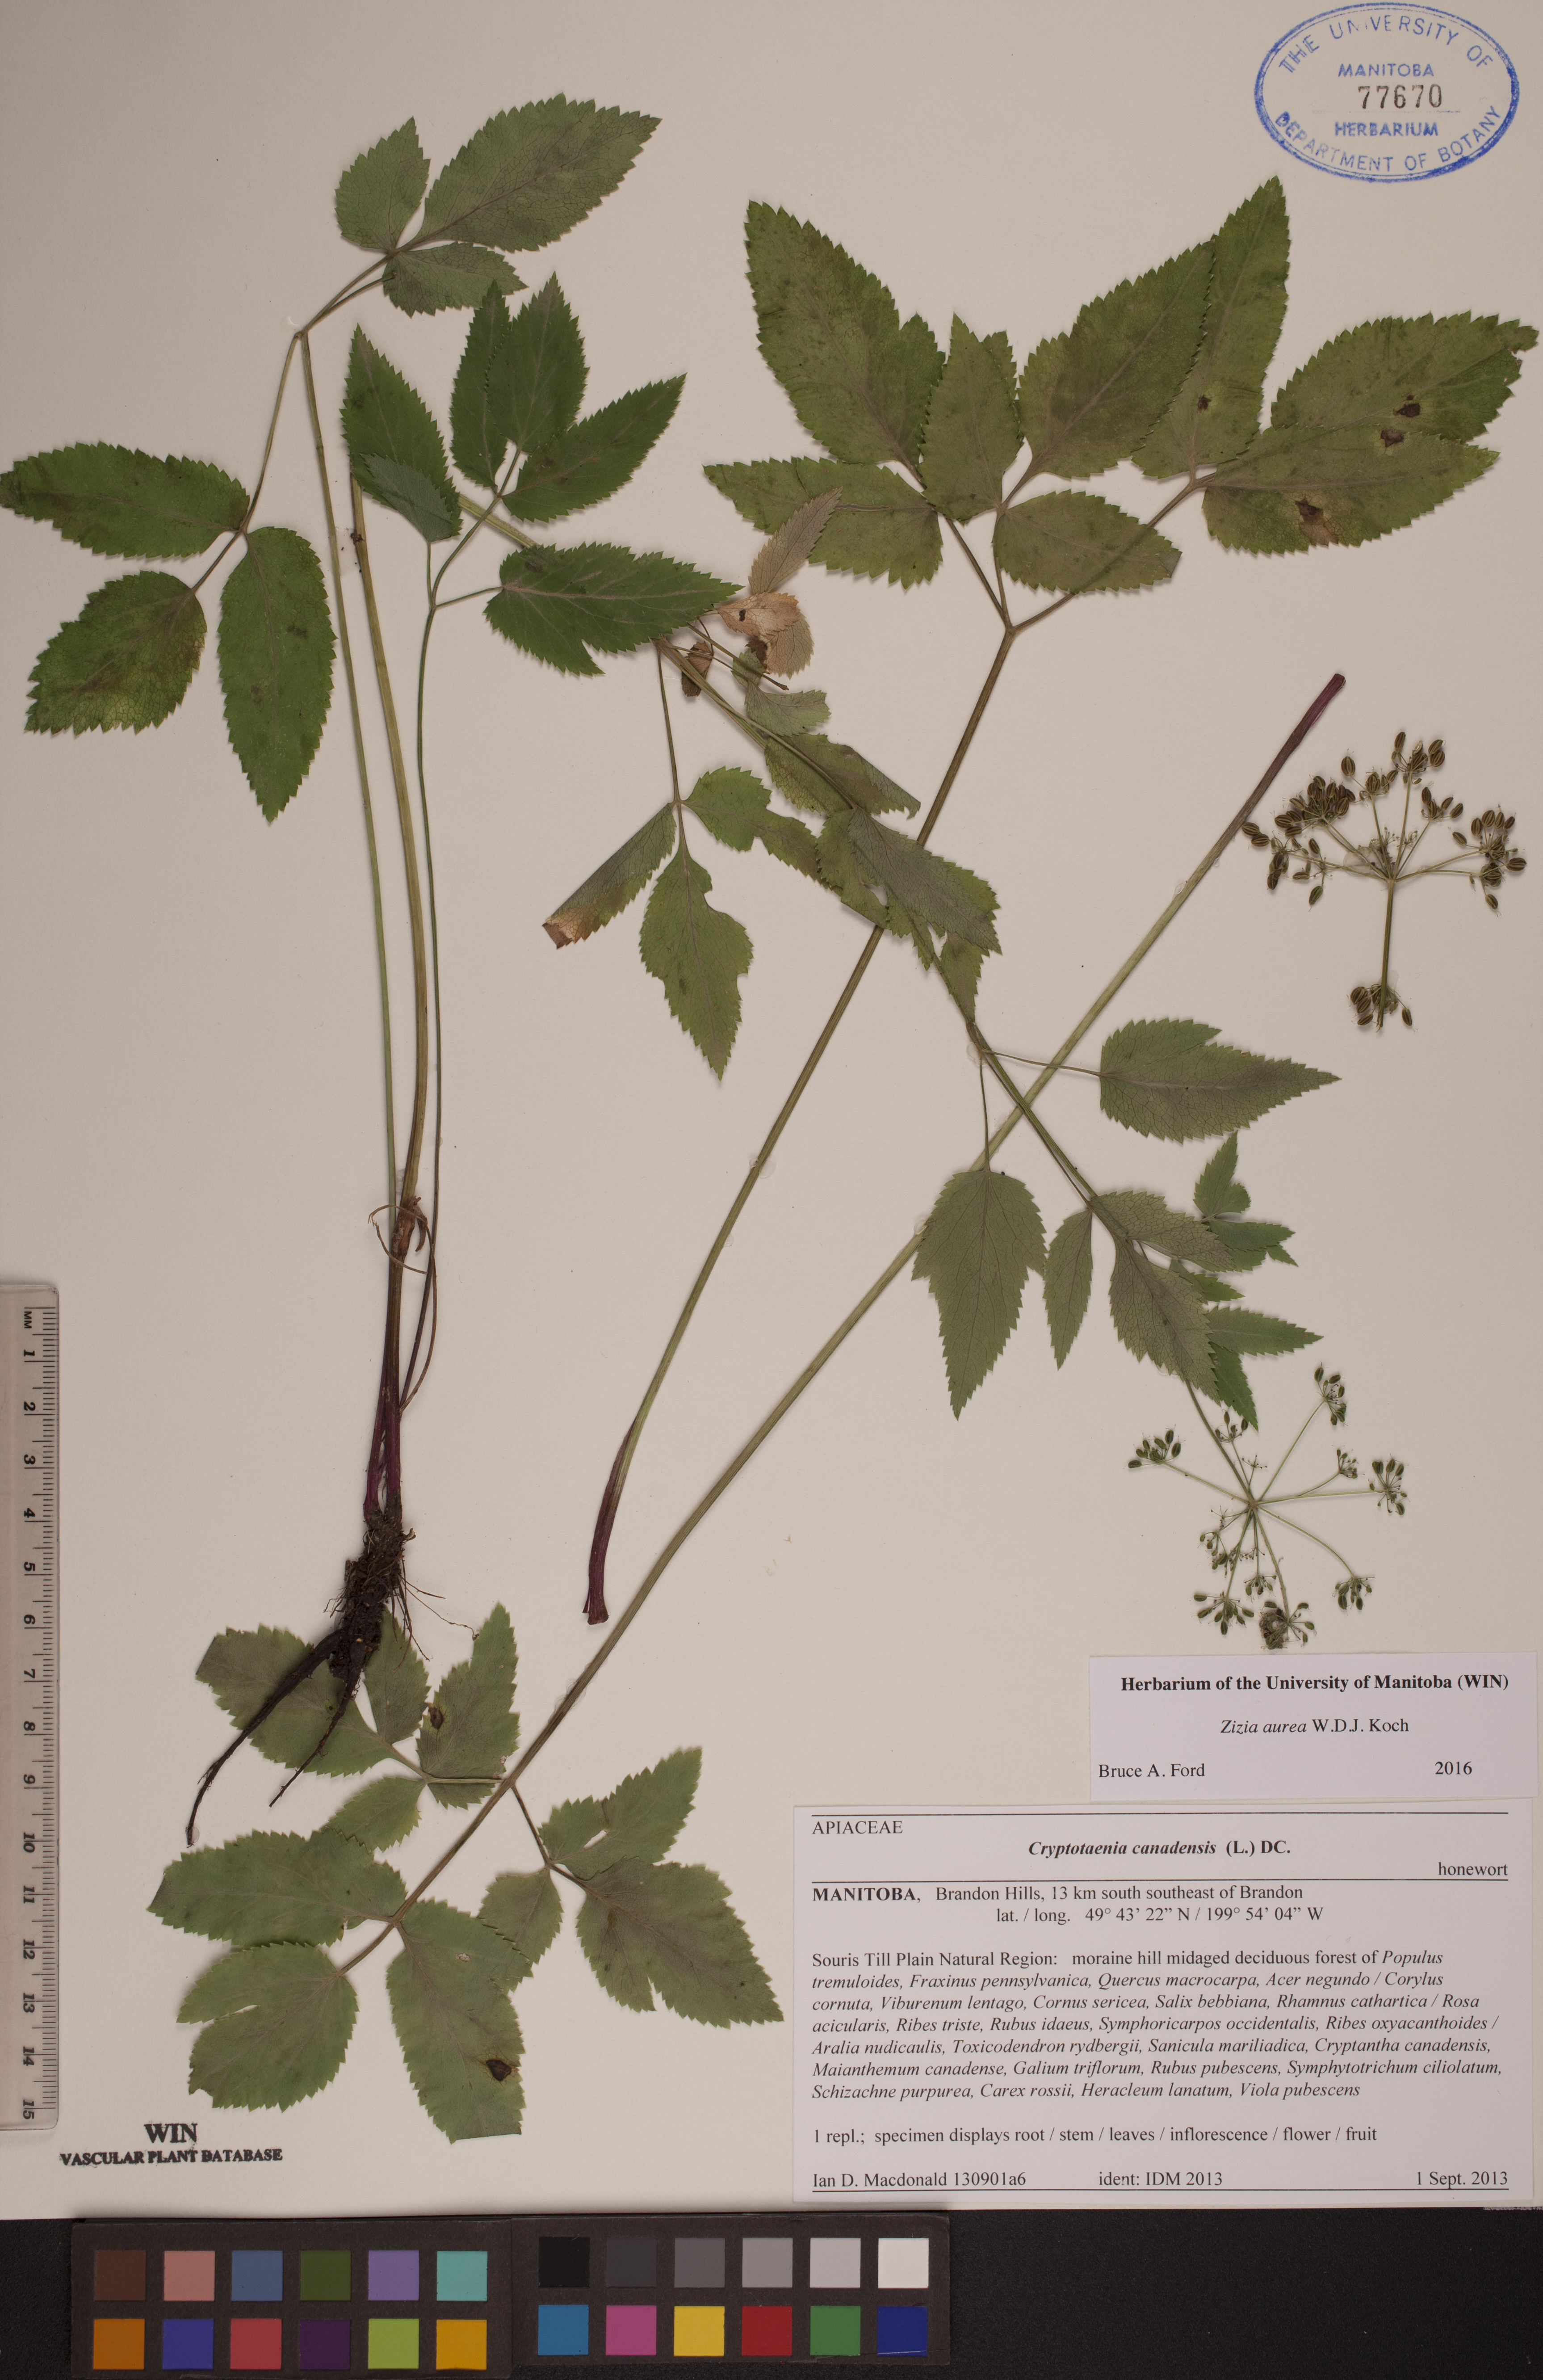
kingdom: Plantae
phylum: Tracheophyta
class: Magnoliopsida
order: Apiales
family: Apiaceae
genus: Zizia
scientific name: Zizia aurea
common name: Golden alexanders
